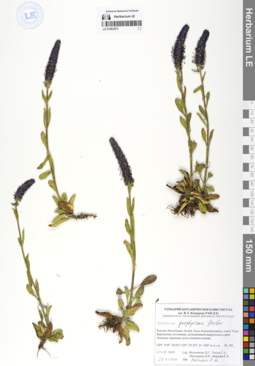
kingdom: Plantae
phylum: Tracheophyta
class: Magnoliopsida
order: Lamiales
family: Plantaginaceae
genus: Veronica
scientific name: Veronica porphyriana
